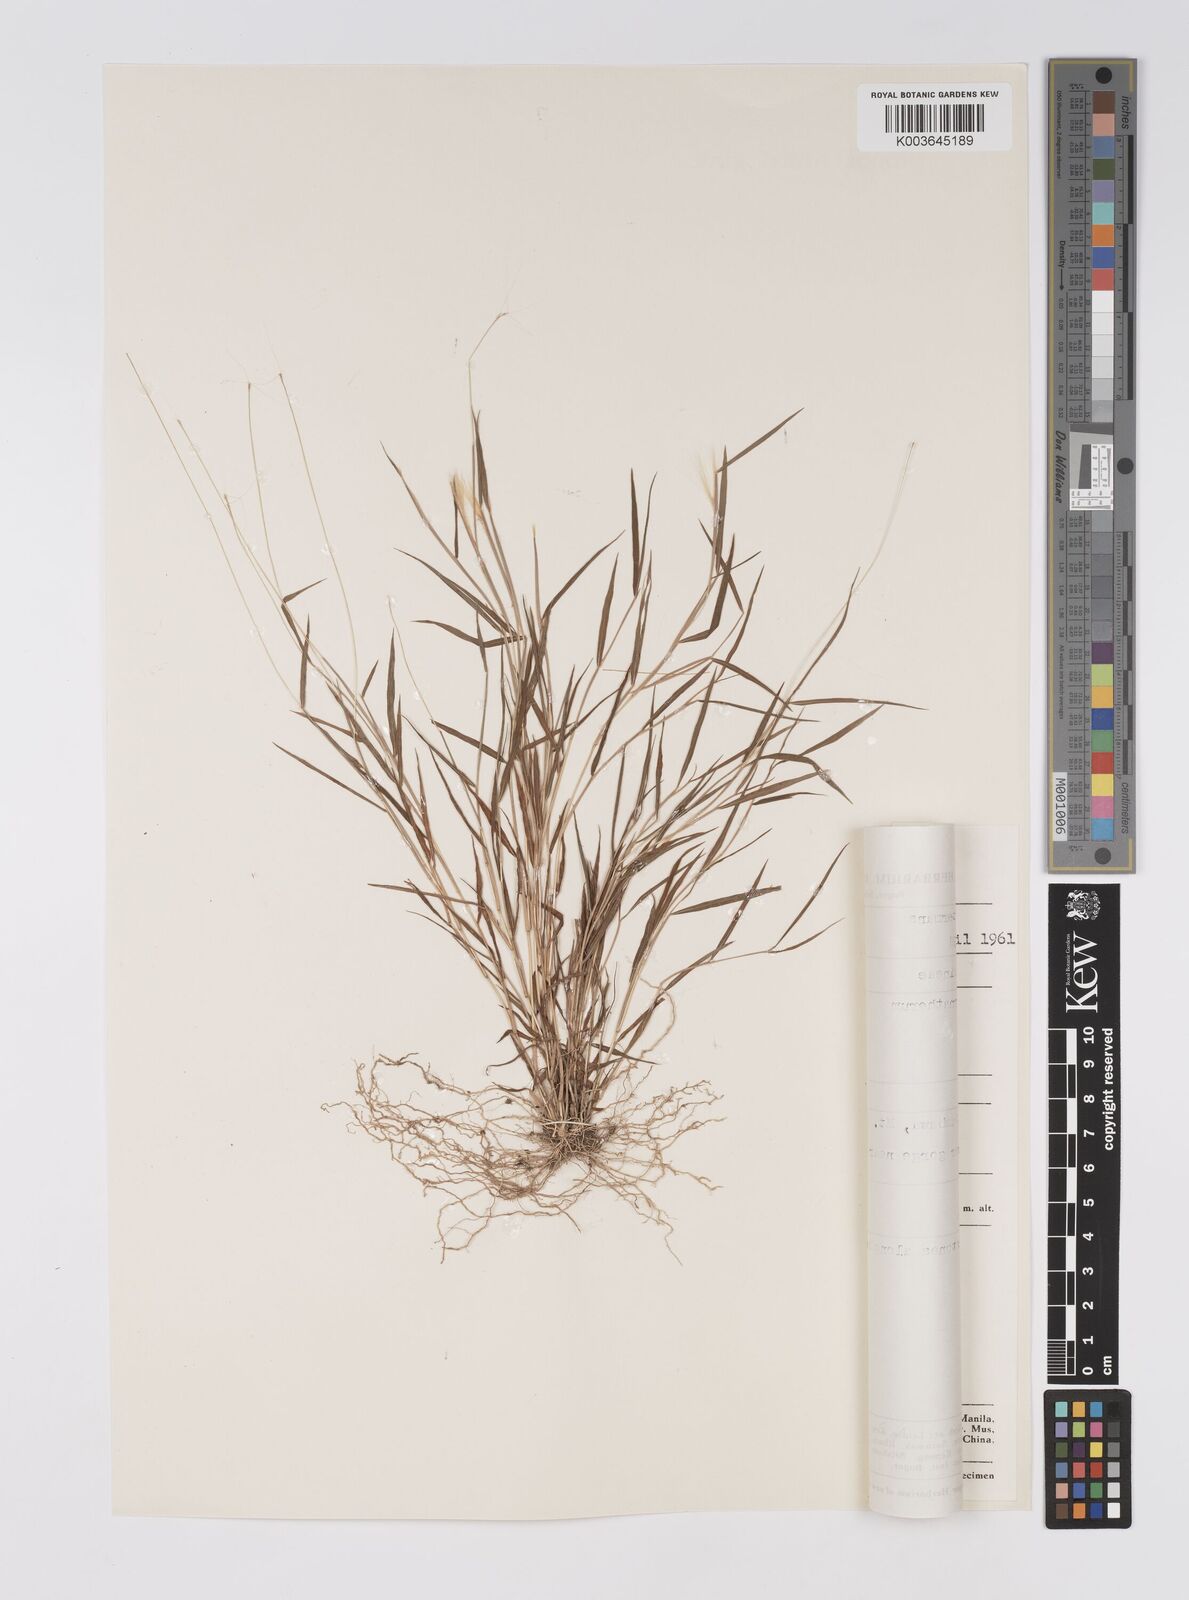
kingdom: Plantae
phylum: Tracheophyta
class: Liliopsida
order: Poales
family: Poaceae
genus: Pogonatherum
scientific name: Pogonatherum crinitum
